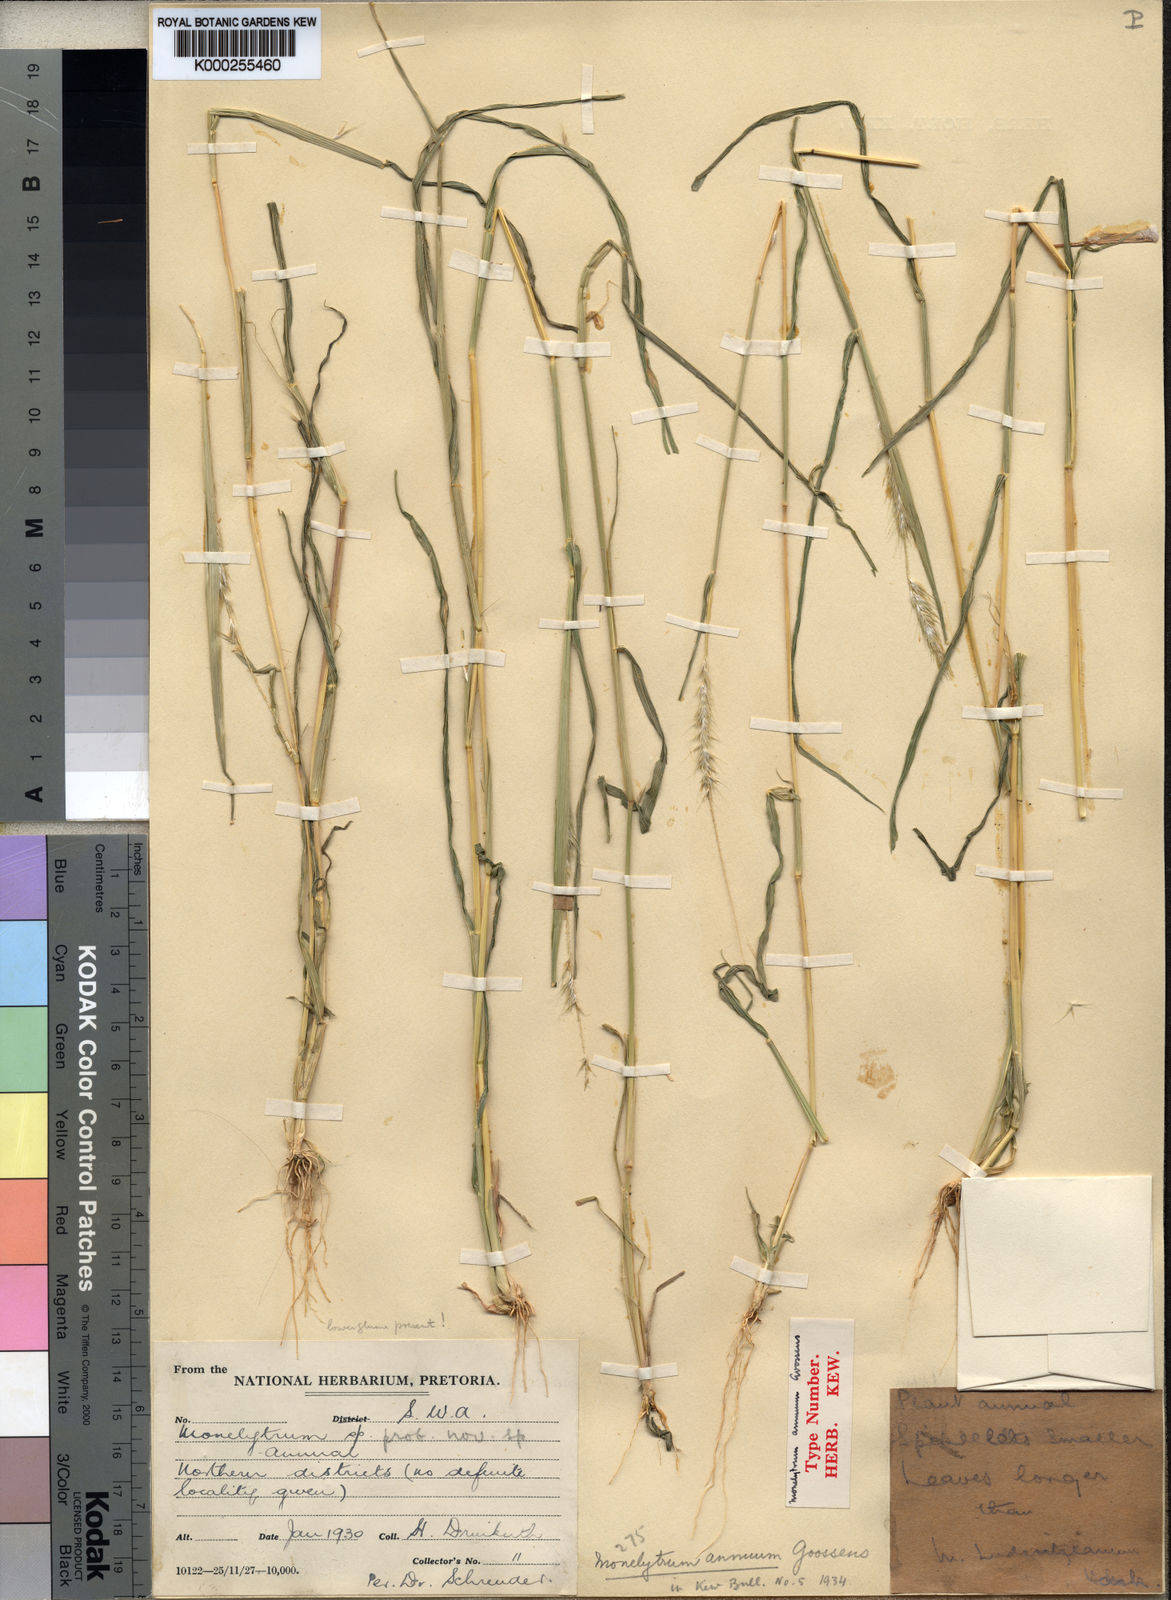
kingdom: Plantae
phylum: Tracheophyta
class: Liliopsida
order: Poales
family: Poaceae
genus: Monelytrum
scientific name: Monelytrum luederitzianum
